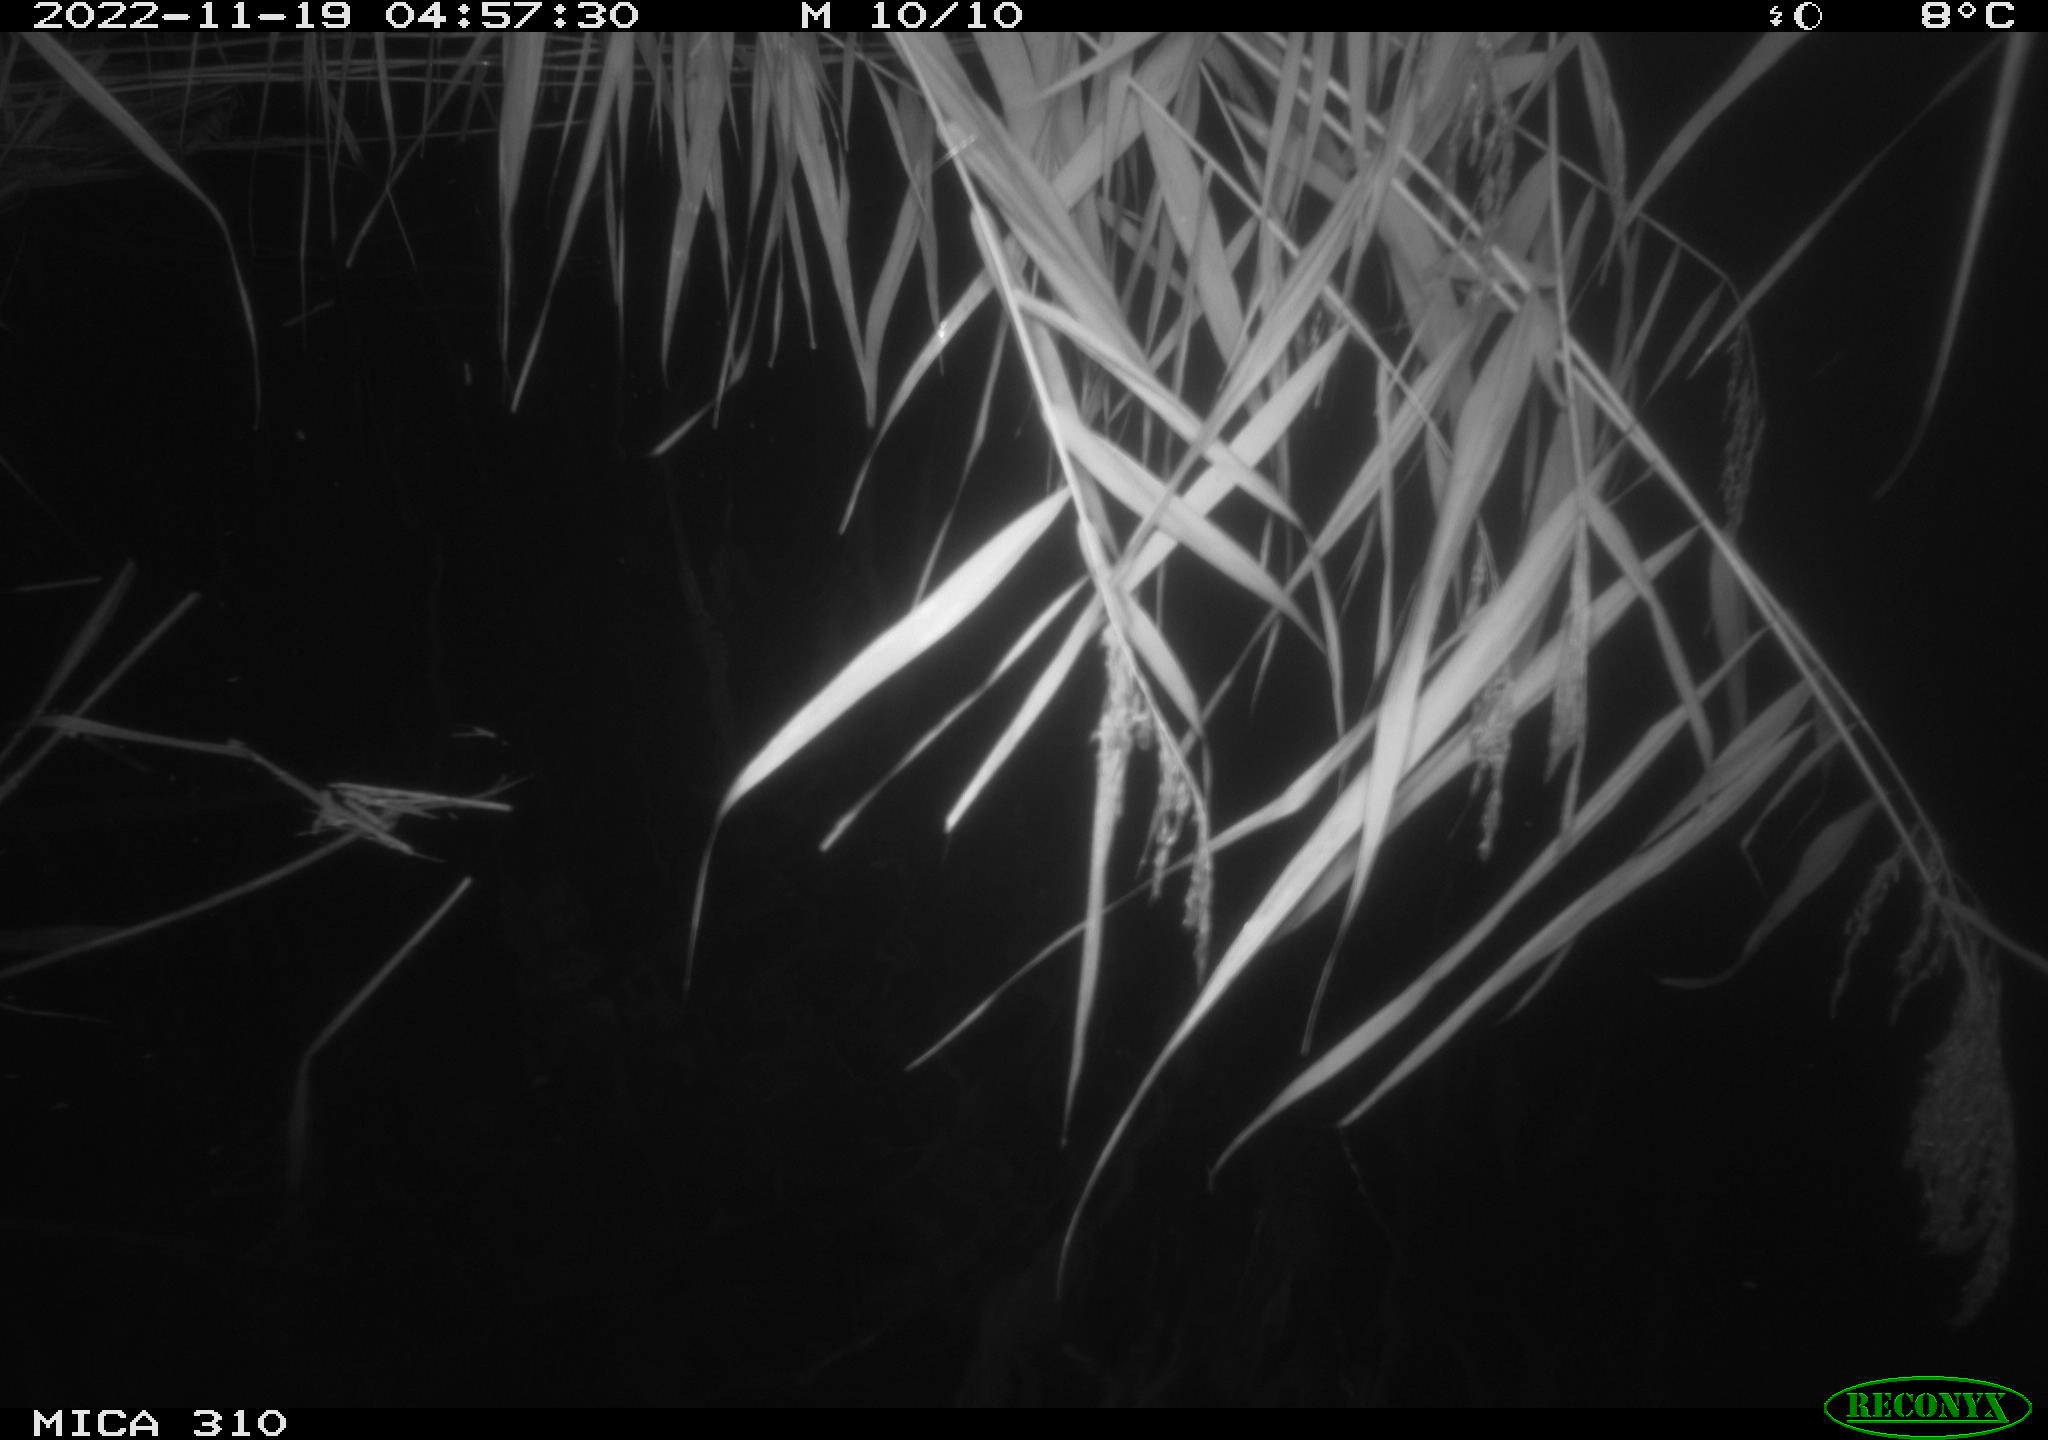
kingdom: Animalia
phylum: Chordata
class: Mammalia
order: Rodentia
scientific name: Rodentia
